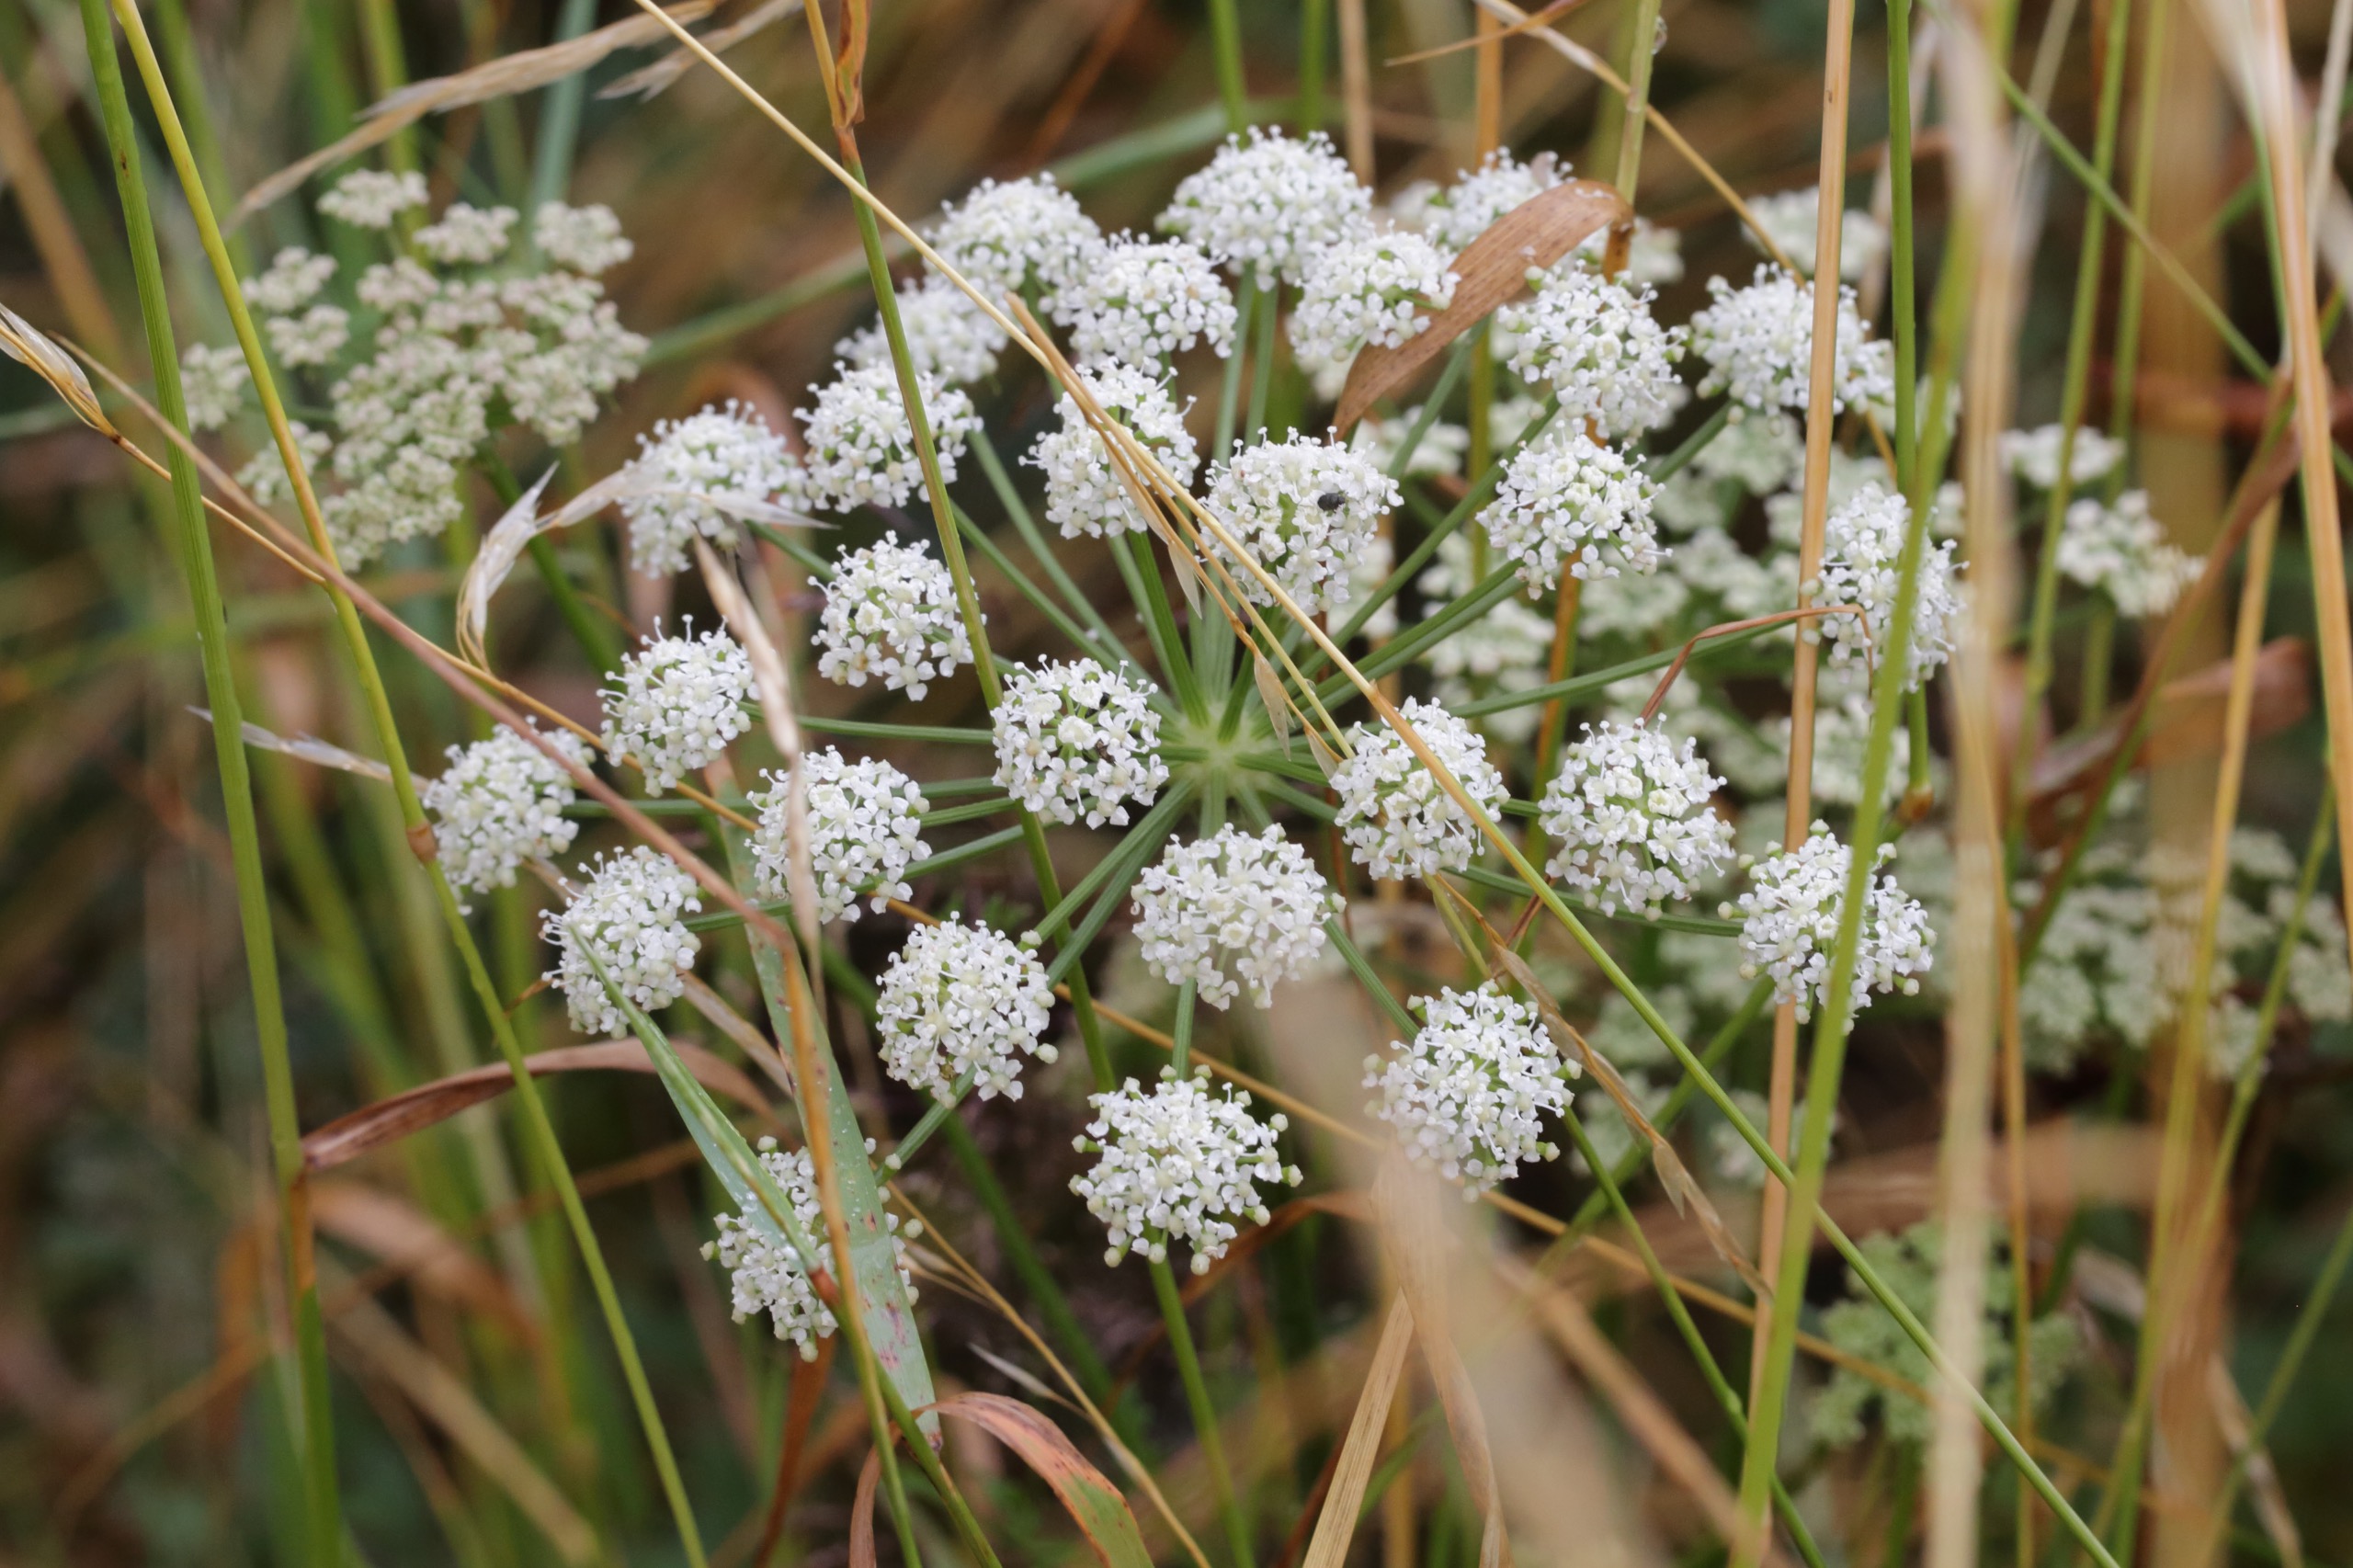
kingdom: Plantae
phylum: Tracheophyta
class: Magnoliopsida
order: Apiales
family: Apiaceae
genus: Oreoselinum
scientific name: Oreoselinum nigrum
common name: Bakke-svovlrod
